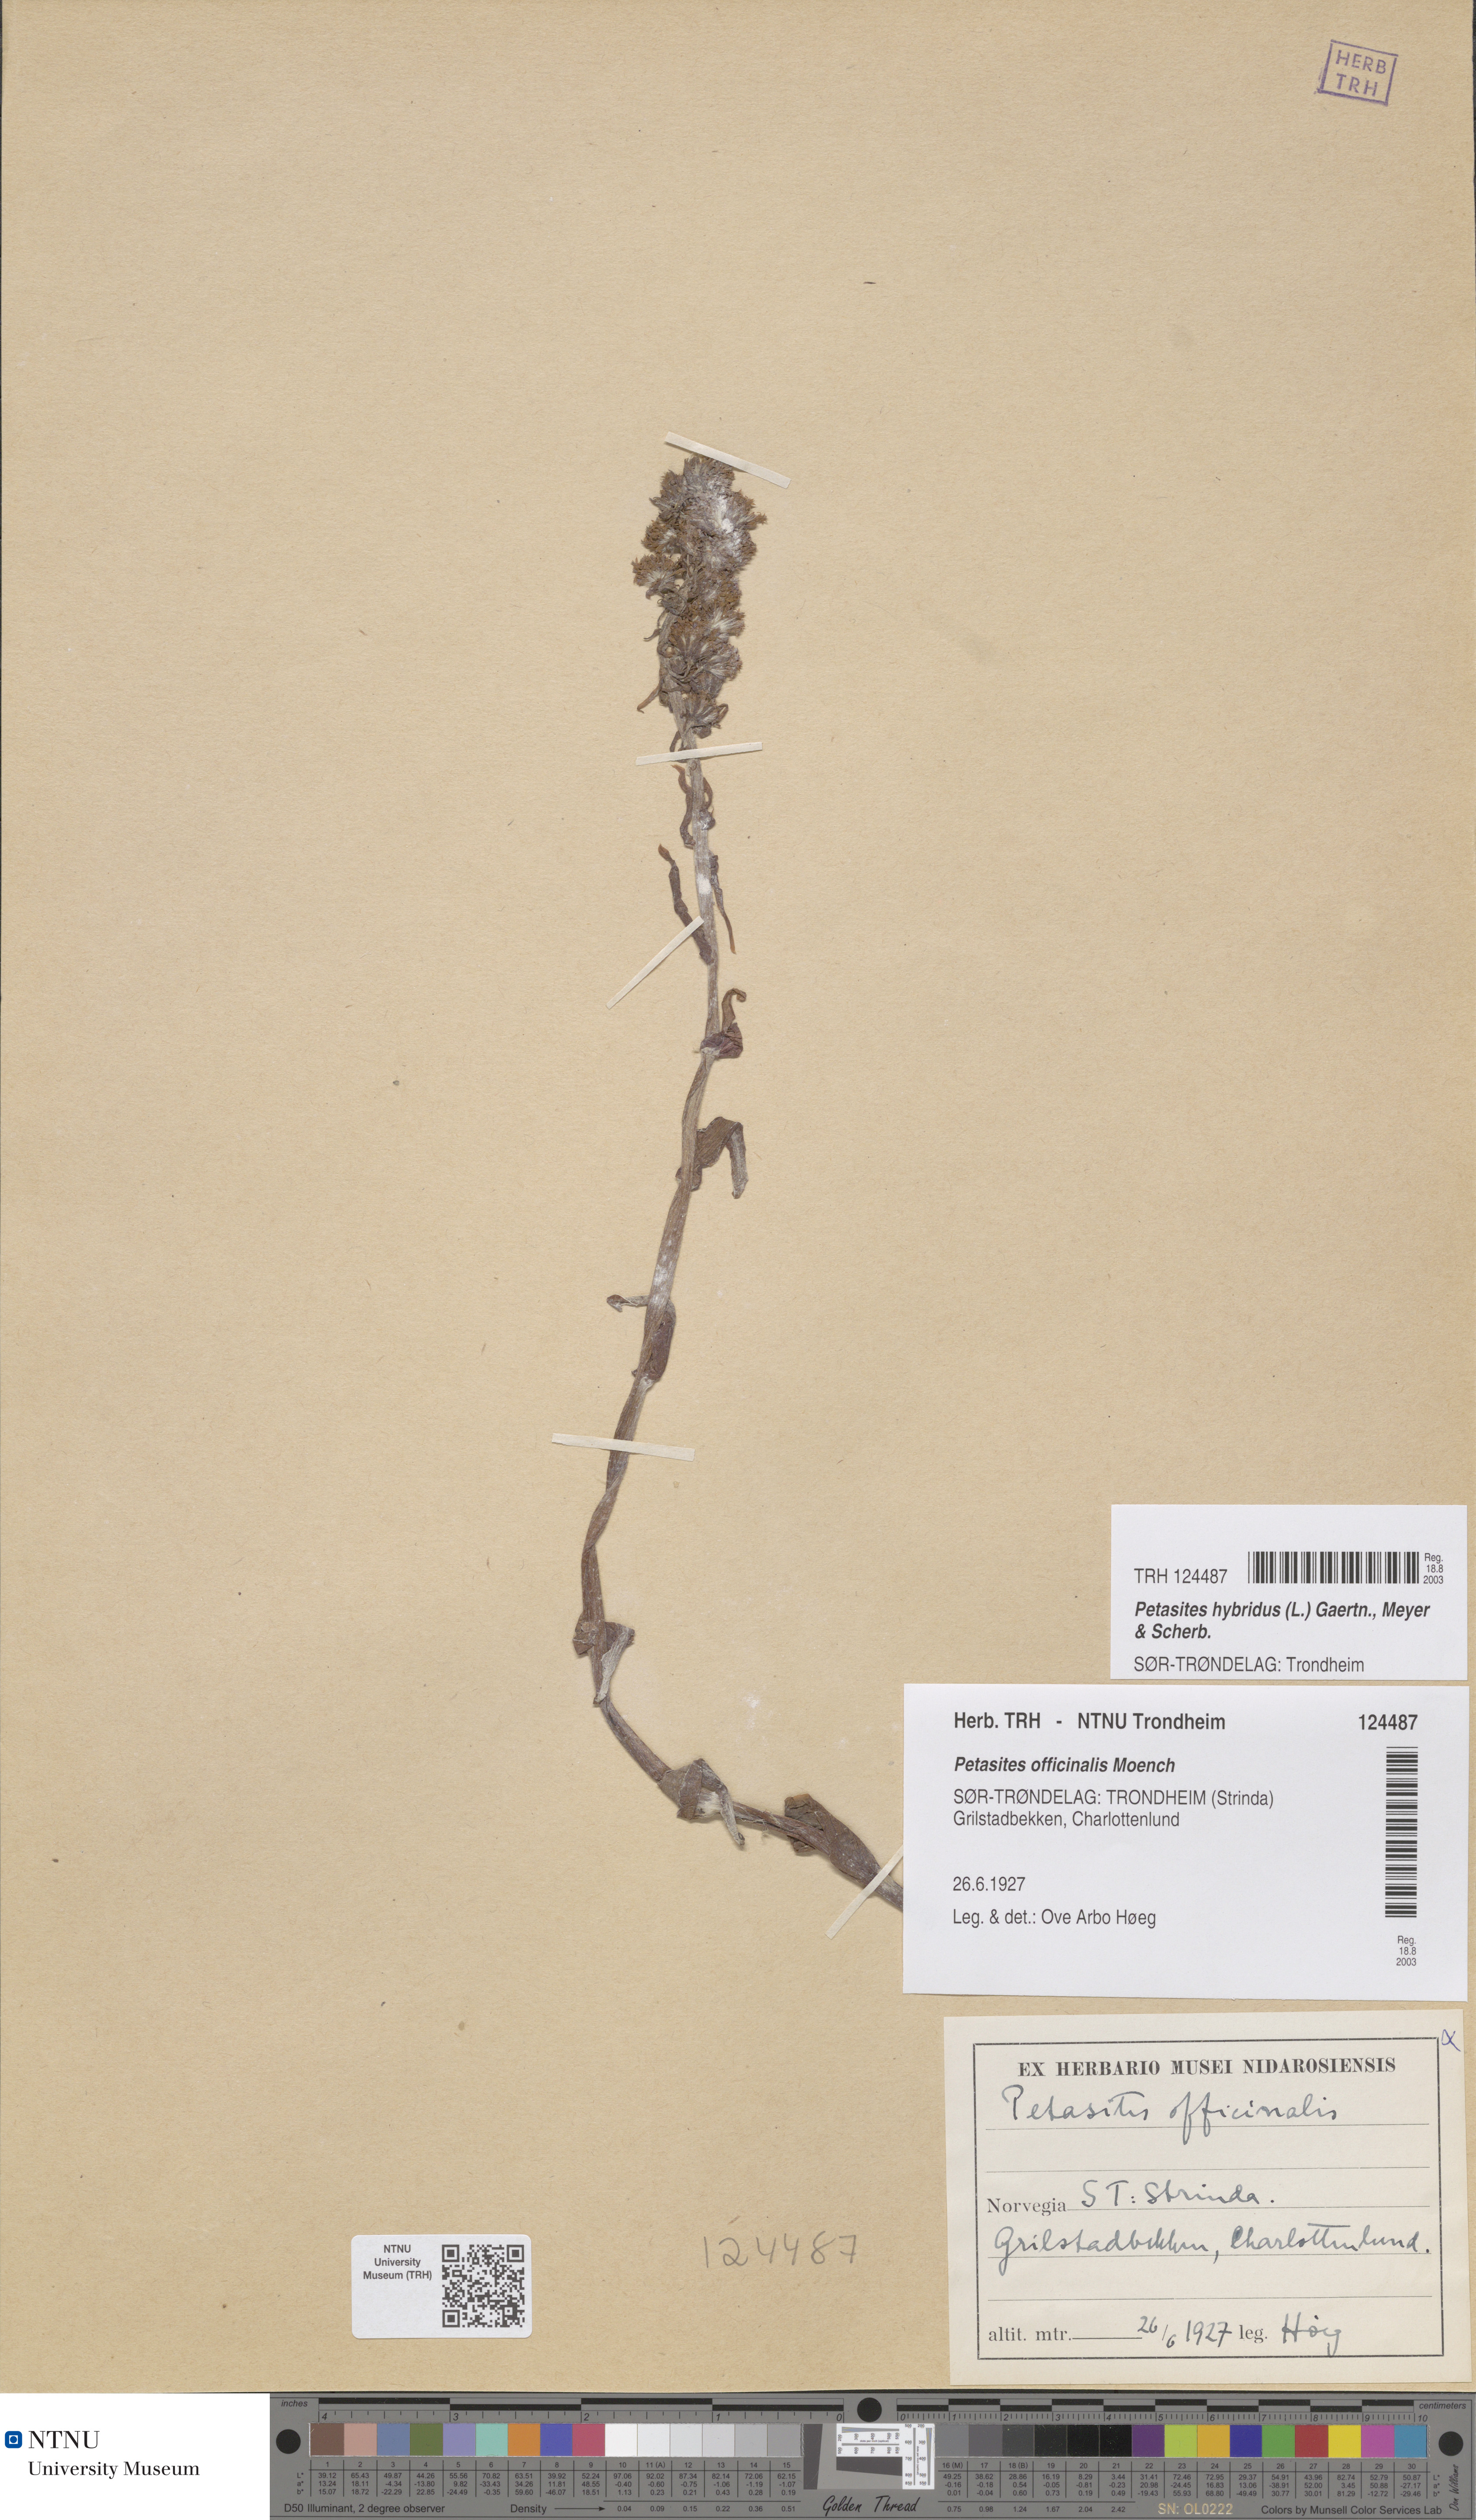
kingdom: Plantae
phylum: Tracheophyta
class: Magnoliopsida
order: Asterales
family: Asteraceae
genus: Petasites
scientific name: Petasites hybridus
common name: Butterbur
